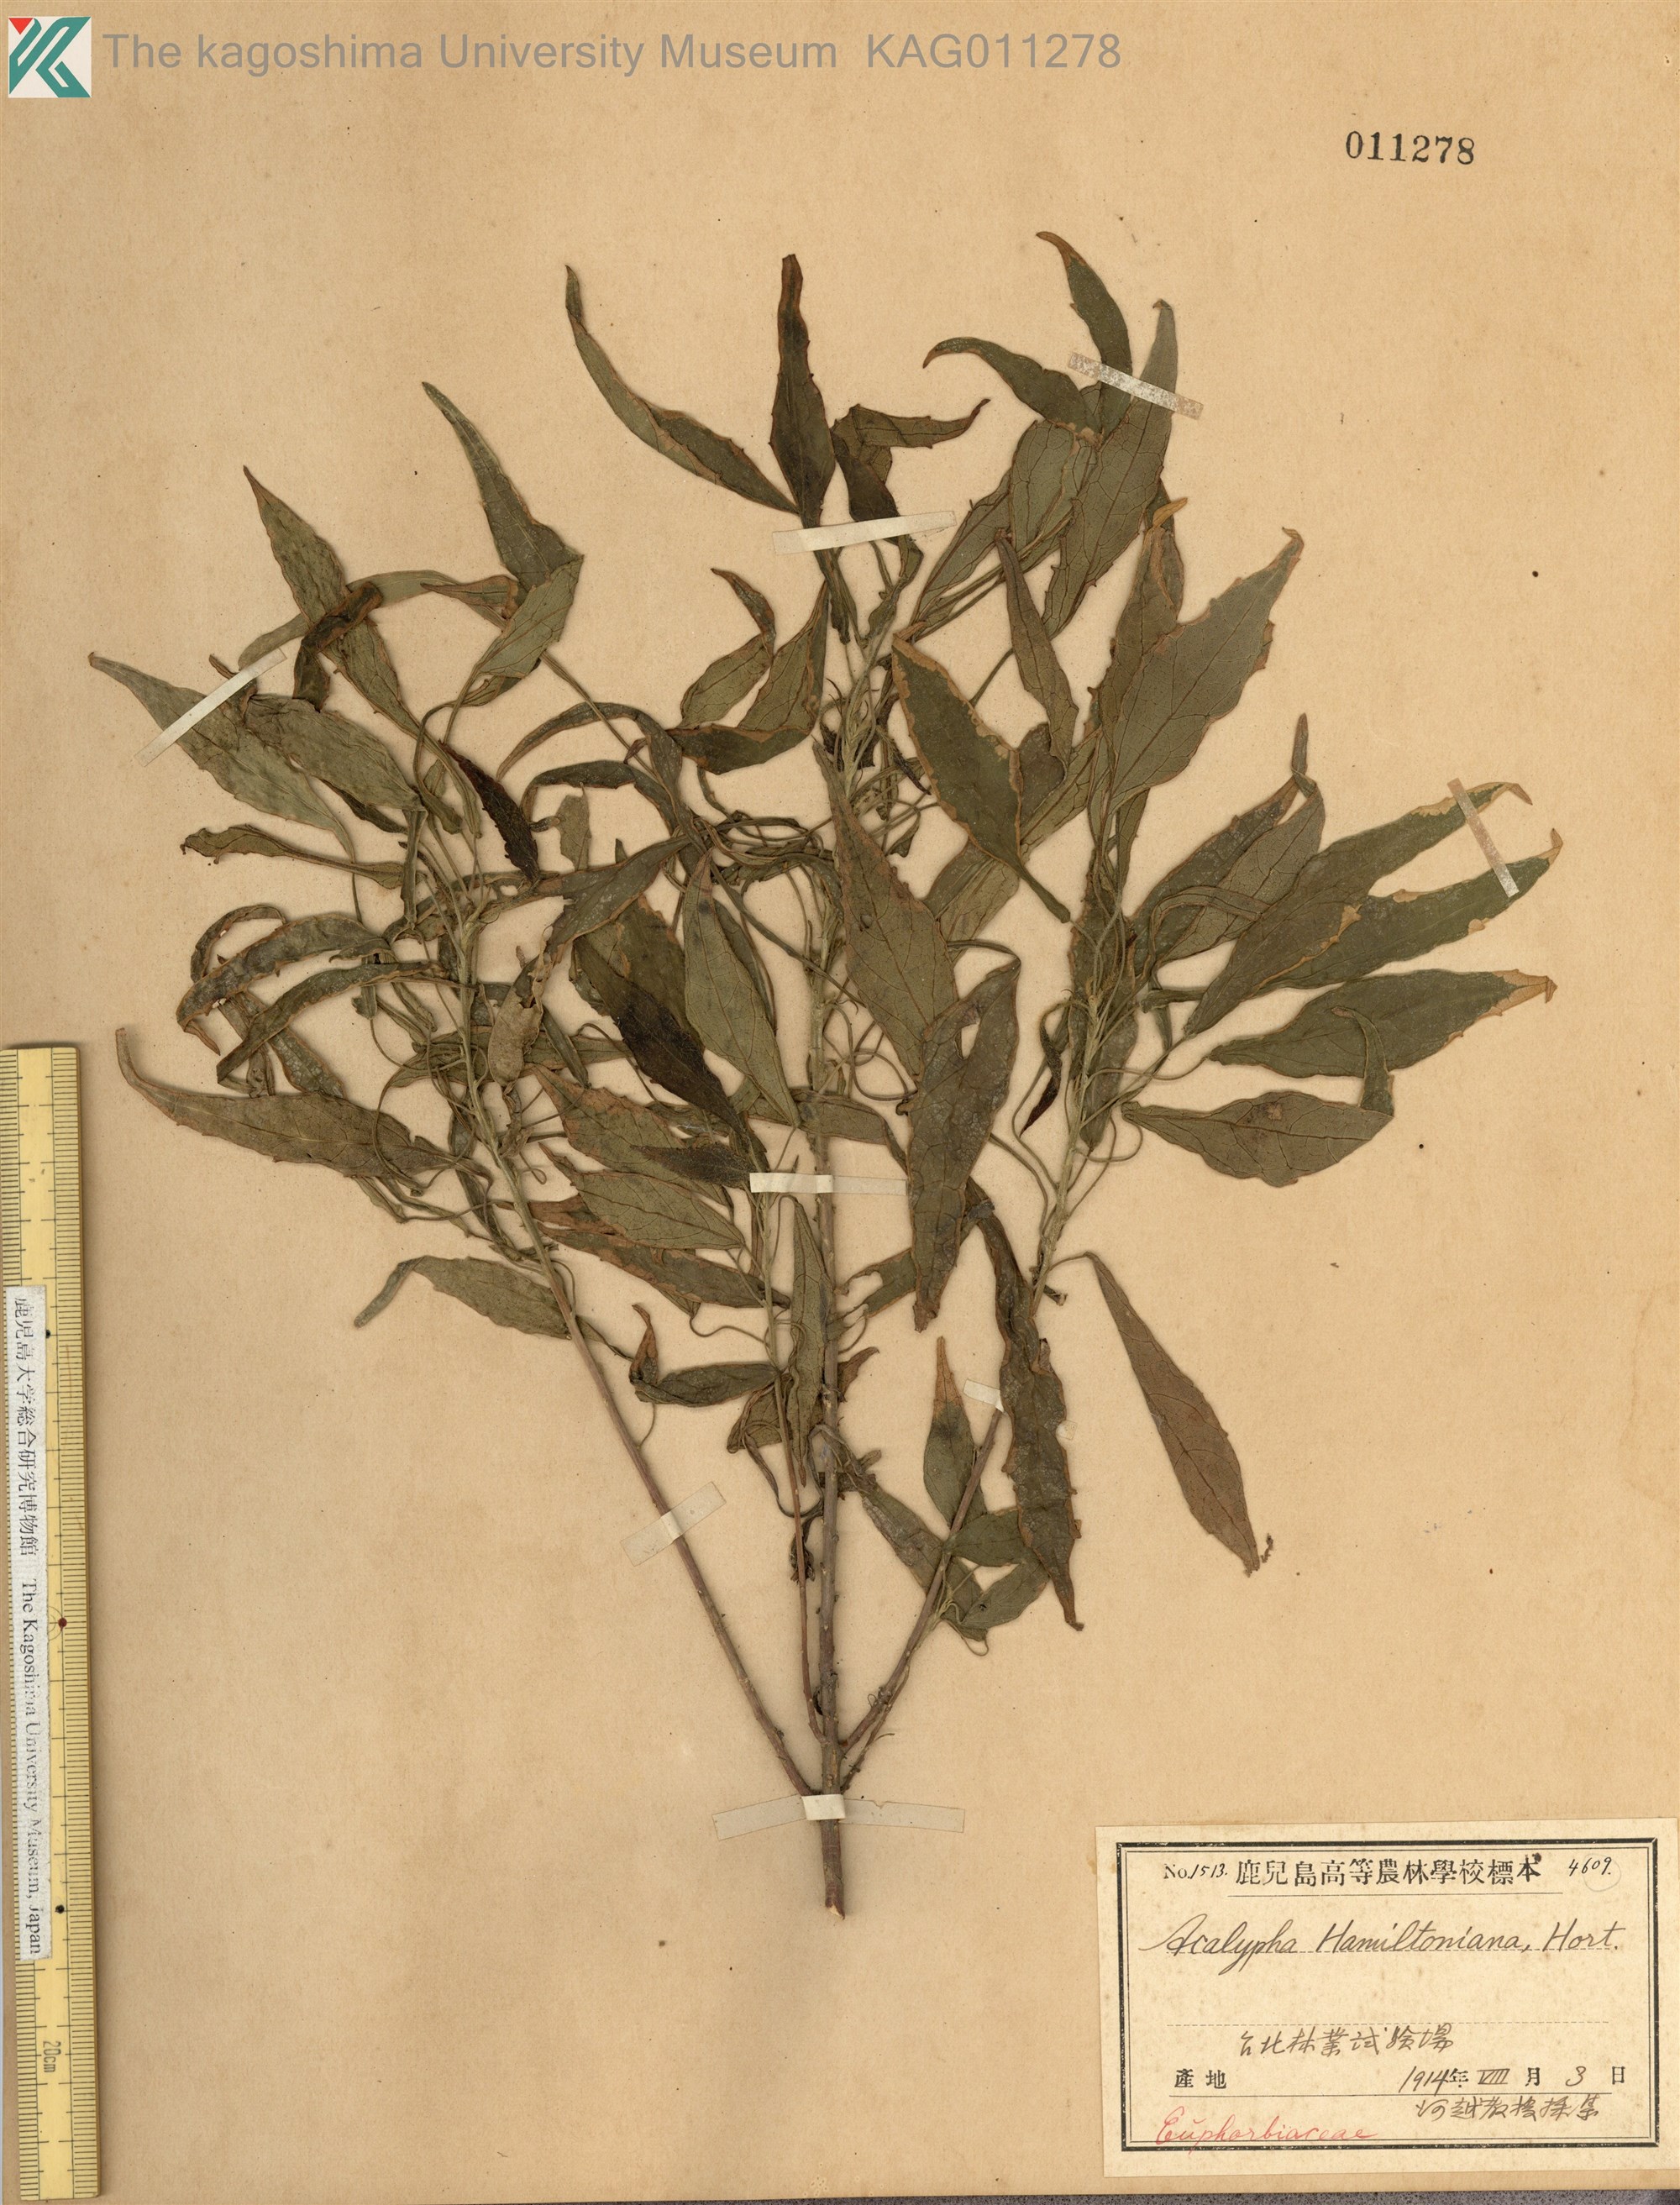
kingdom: Plantae
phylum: Tracheophyta
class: Magnoliopsida
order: Malpighiales
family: Euphorbiaceae
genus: Acalypha
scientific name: Acalypha wilkesiana
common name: Jacob's coat
